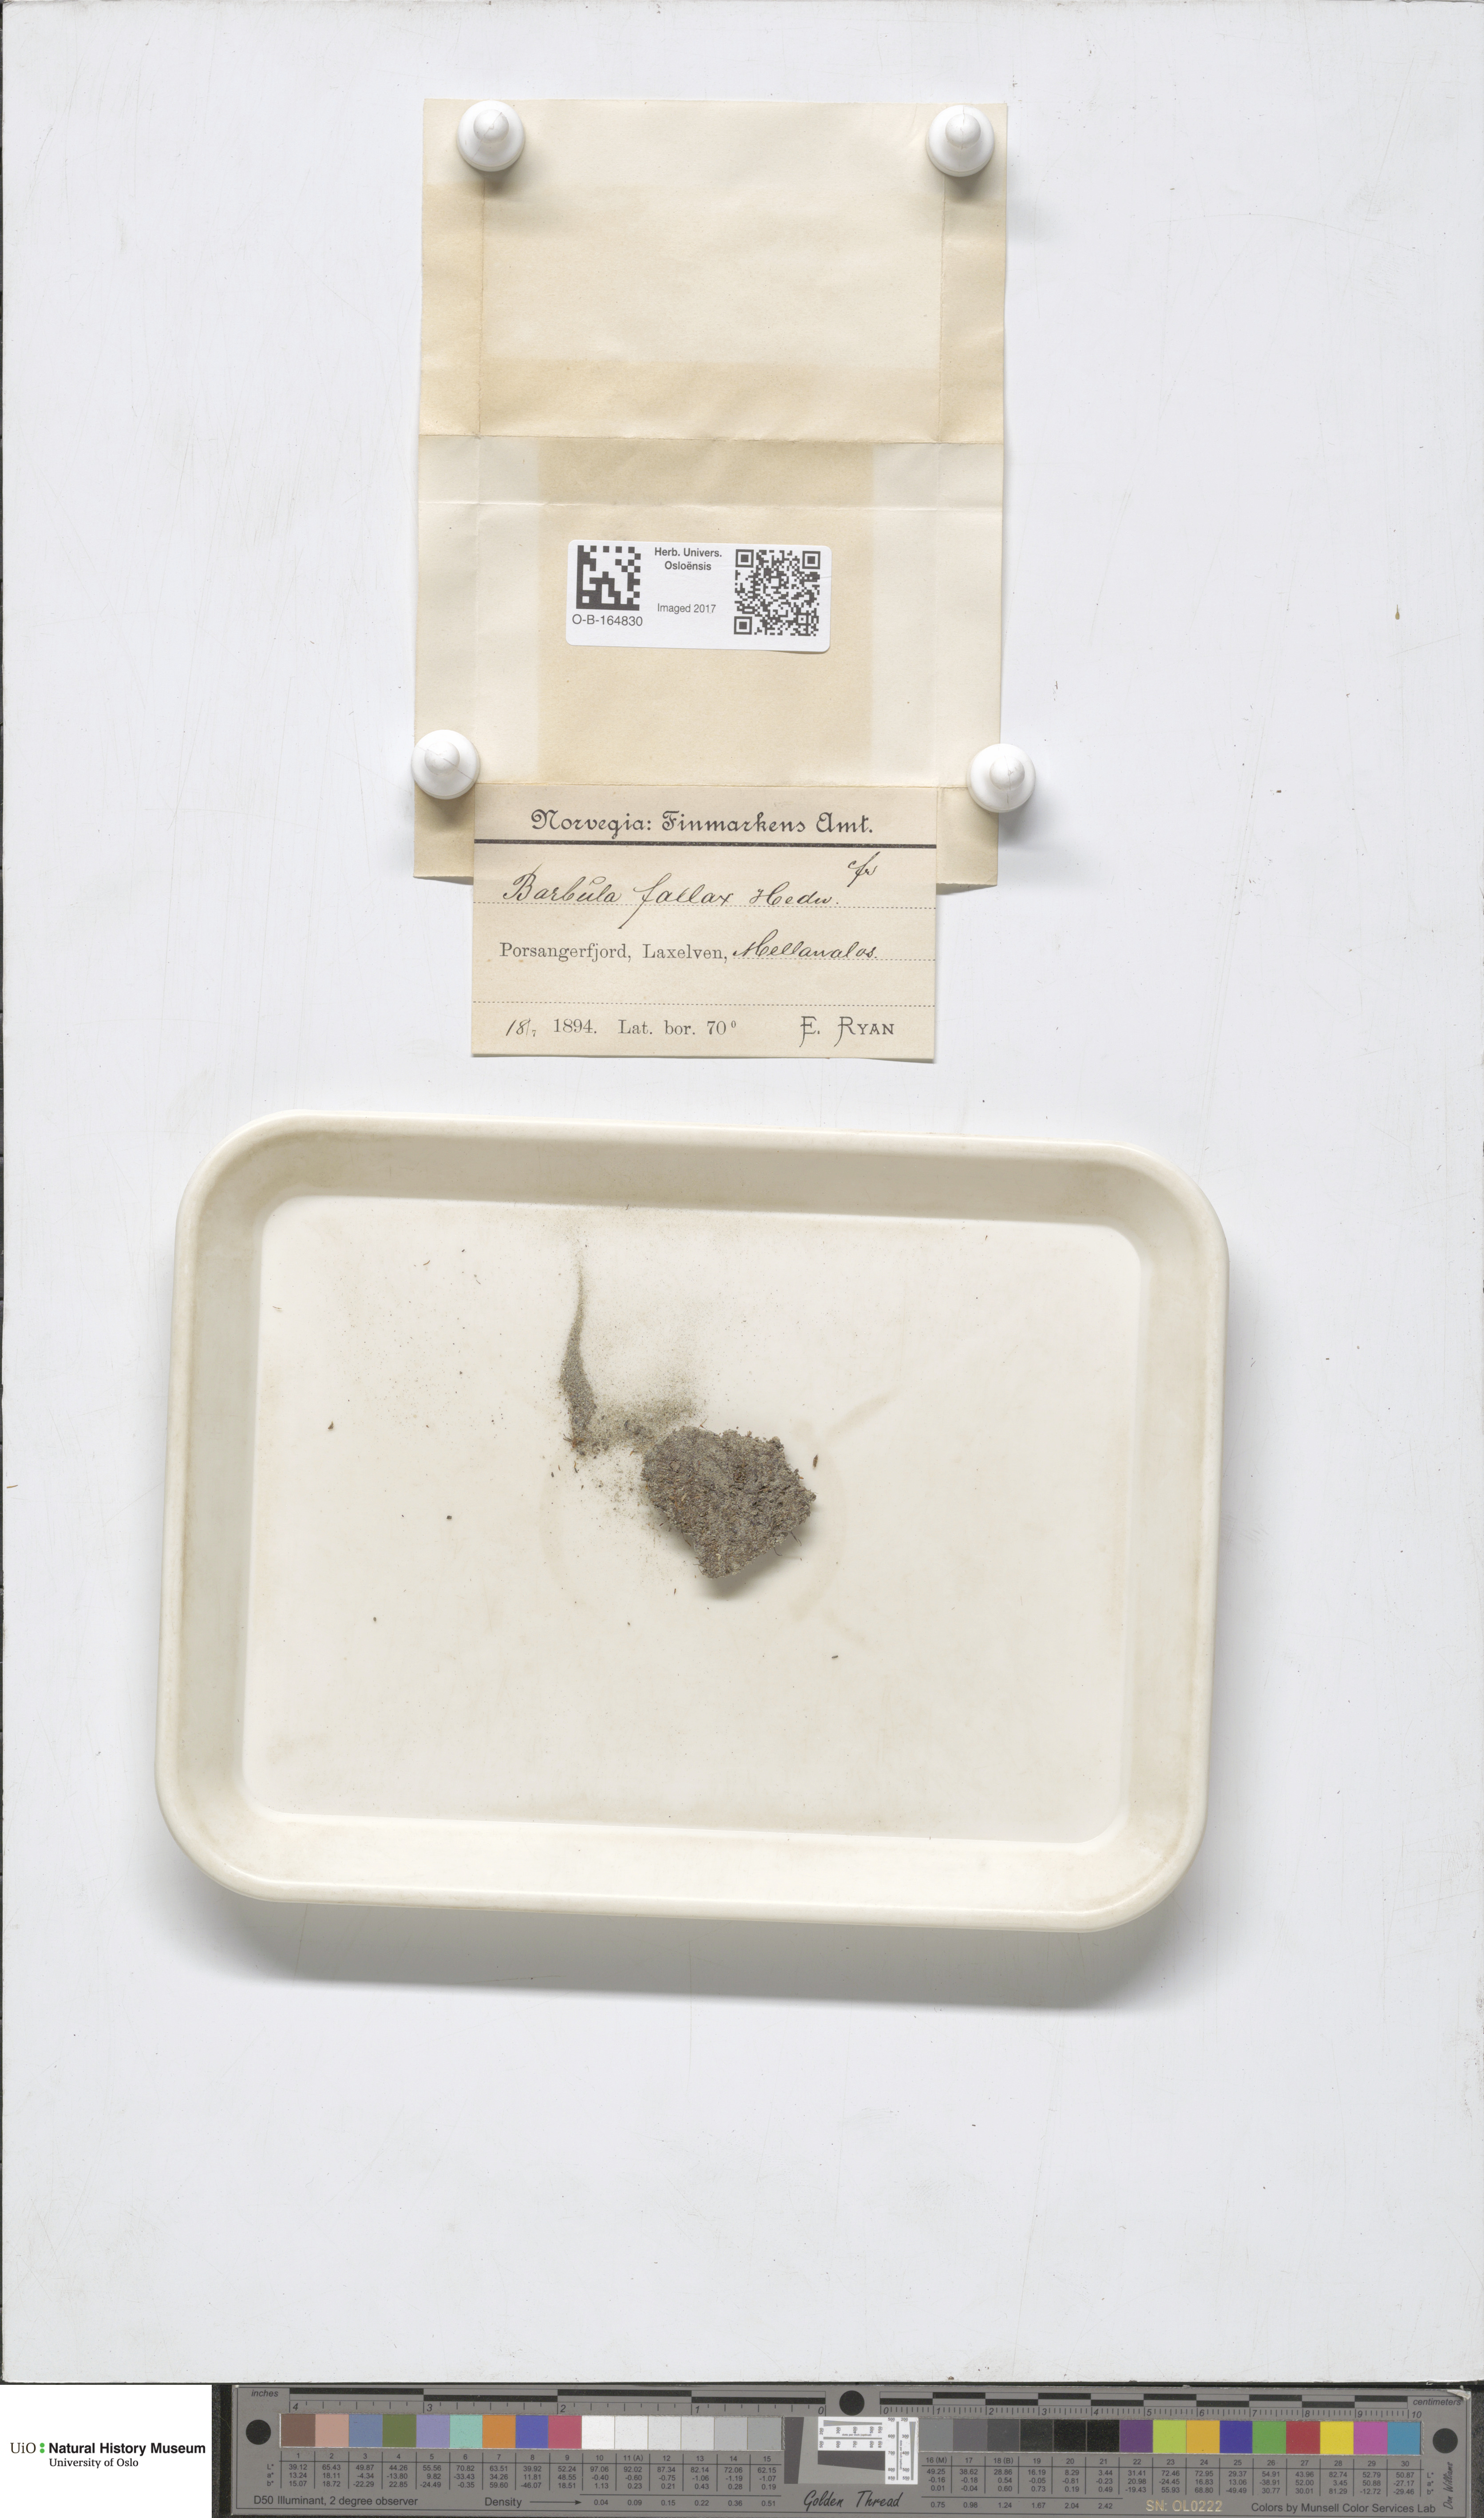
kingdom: Plantae
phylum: Bryophyta
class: Bryopsida
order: Pottiales
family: Pottiaceae
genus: Geheebia
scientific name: Geheebia fallax
